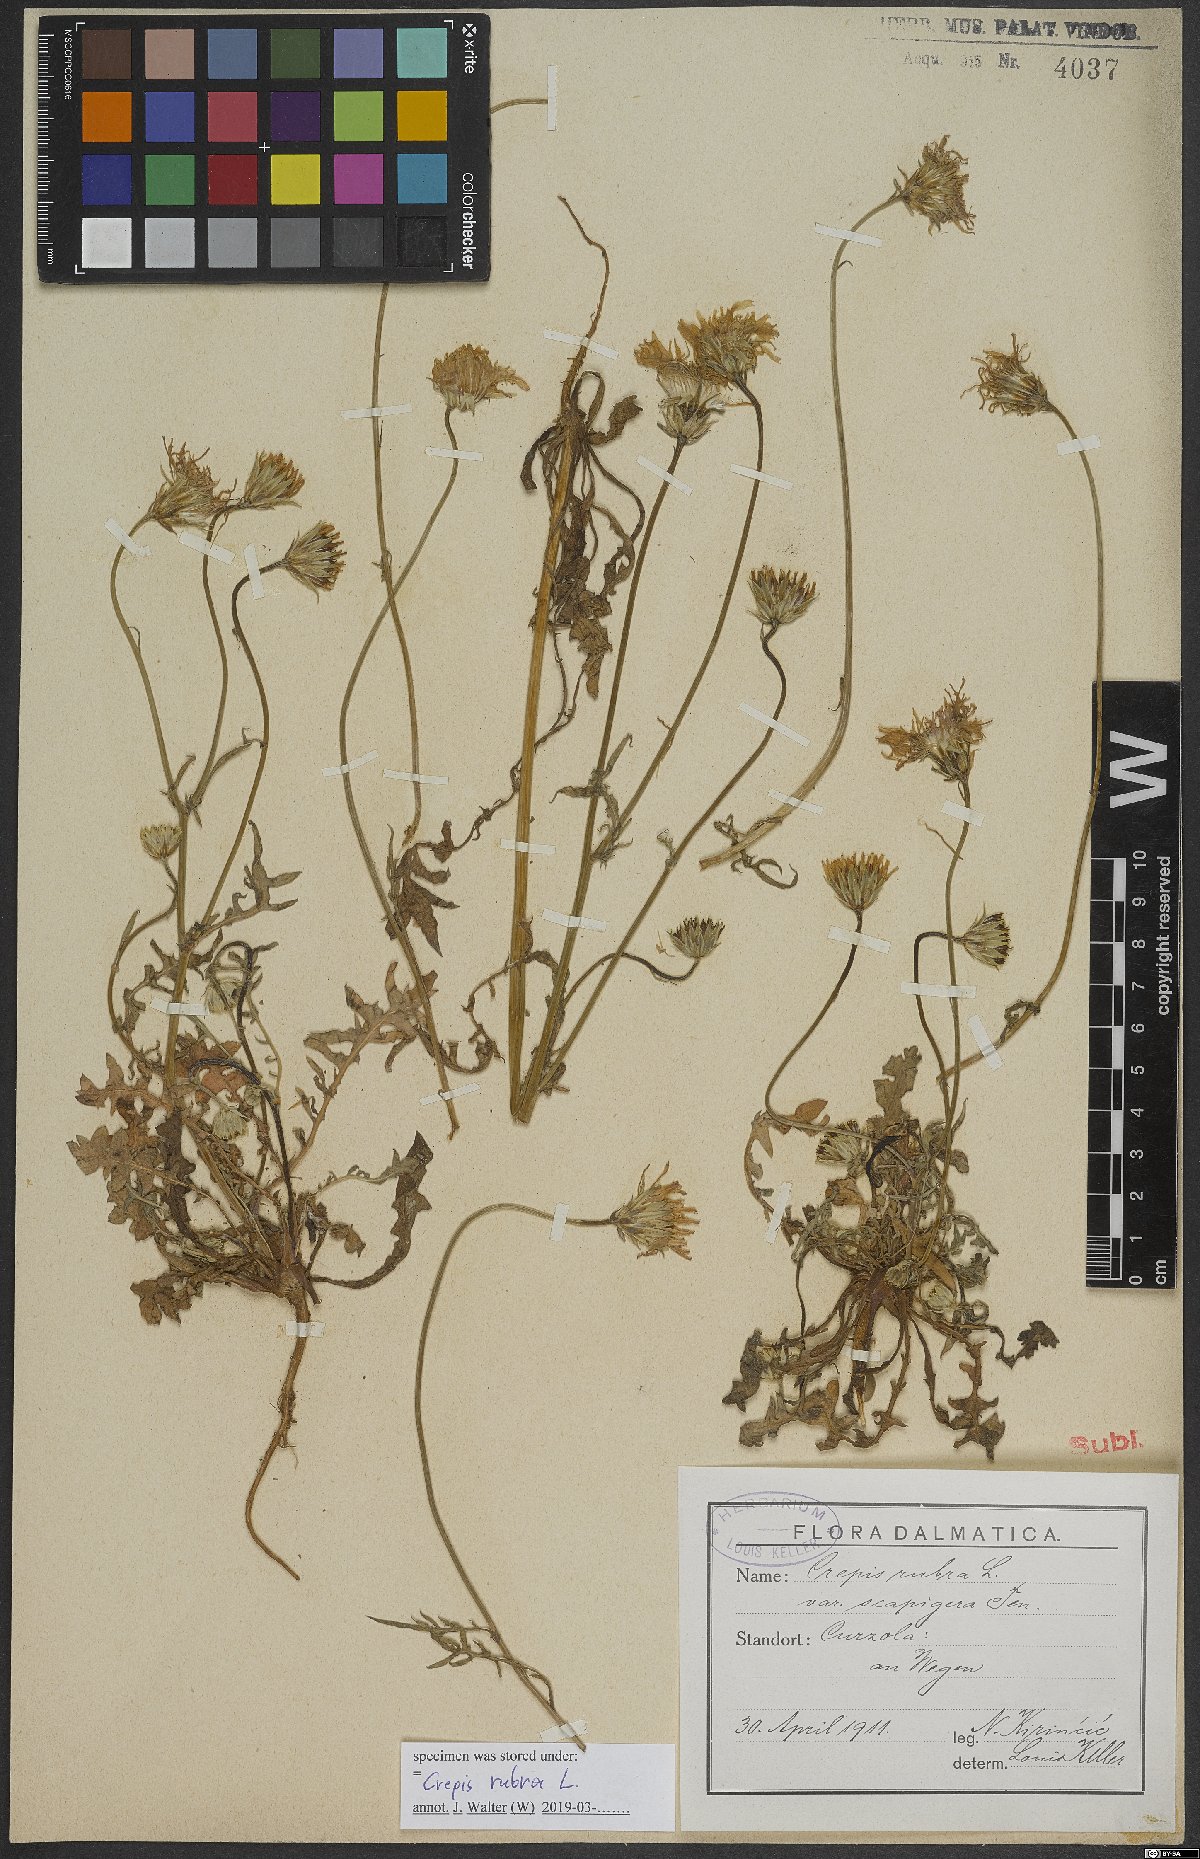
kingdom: Plantae
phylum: Tracheophyta
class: Magnoliopsida
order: Asterales
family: Asteraceae
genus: Crepis
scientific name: Crepis rubra
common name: Pink hawk's-beard
